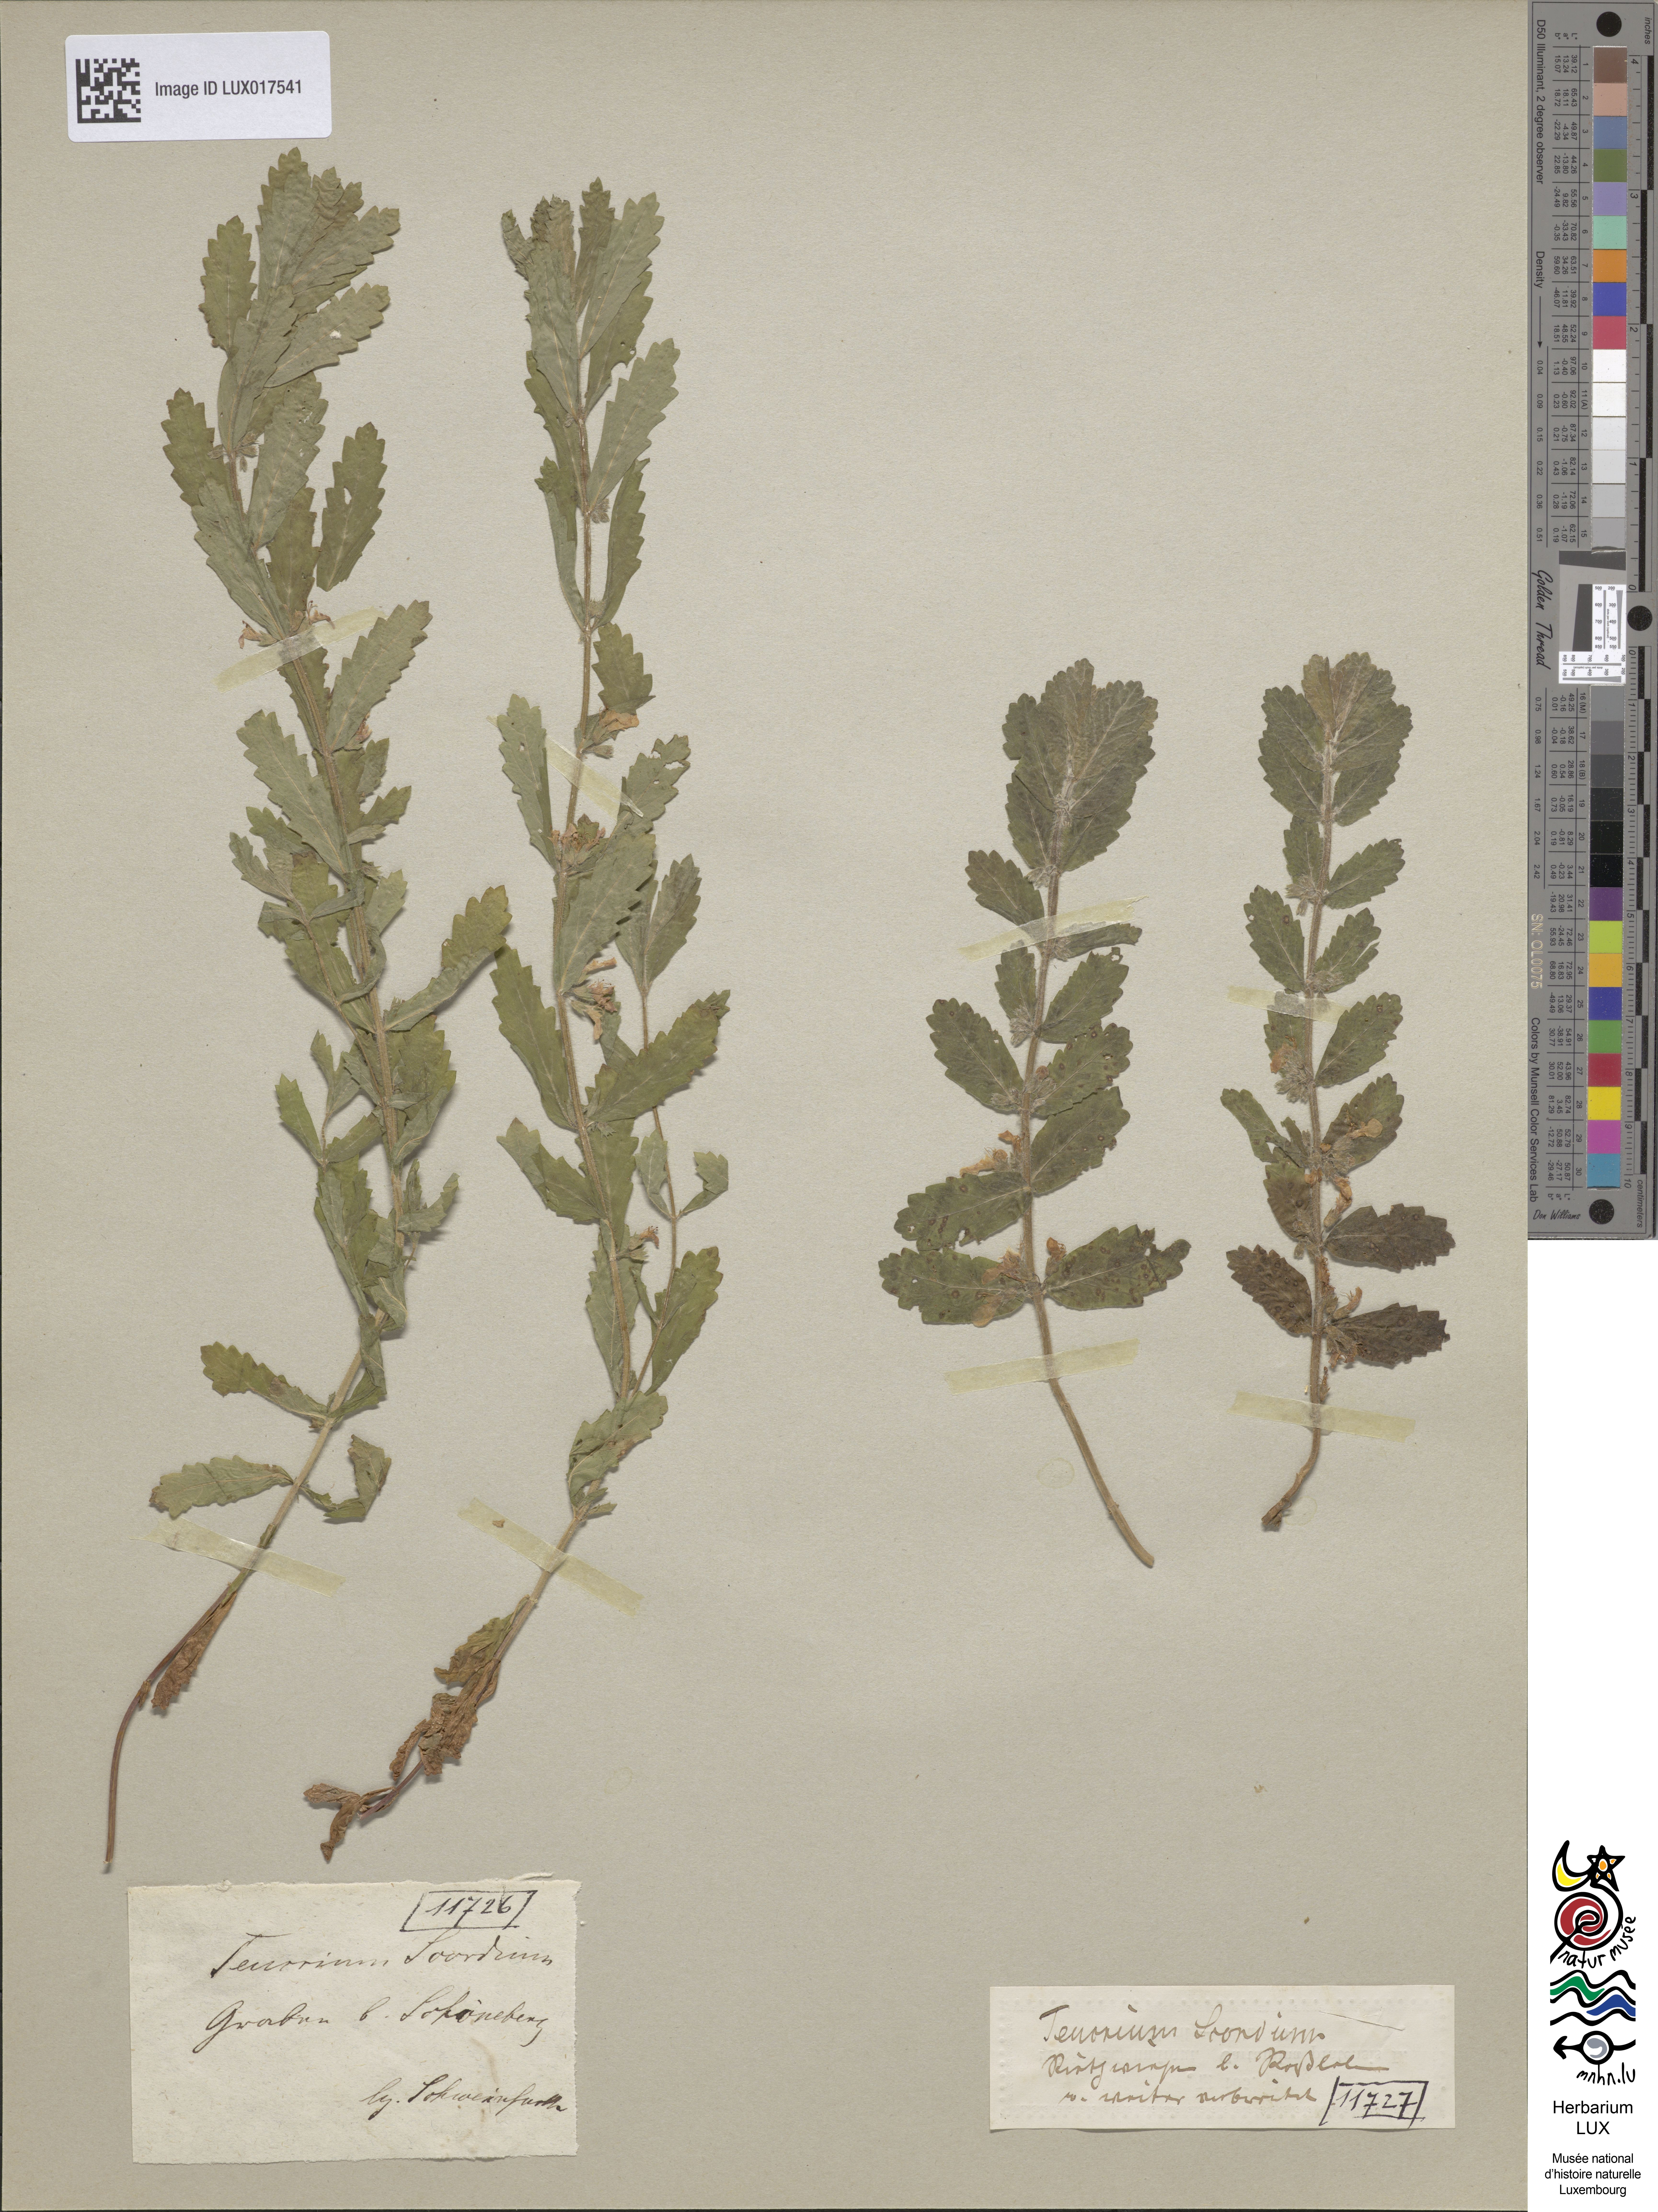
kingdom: Plantae
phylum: Tracheophyta
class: Magnoliopsida
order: Lamiales
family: Lamiaceae
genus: Teucrium
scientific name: Teucrium scordium
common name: Water germander
